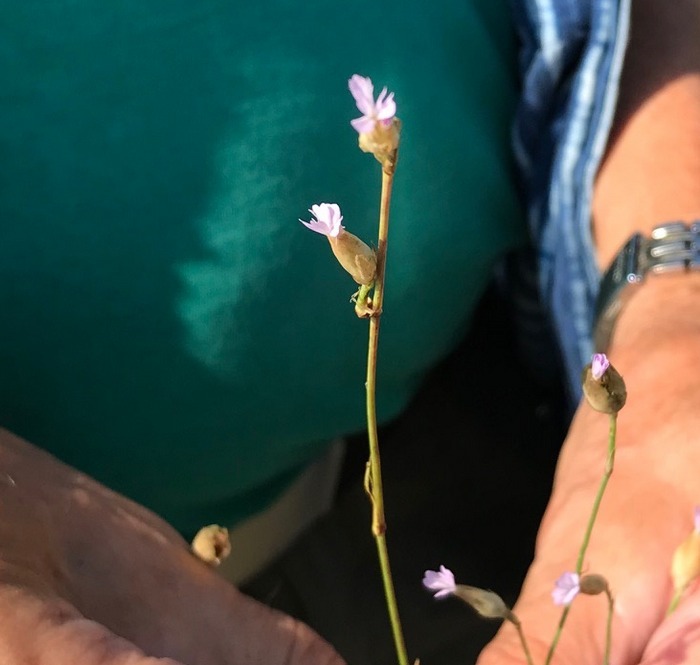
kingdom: Plantae
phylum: Tracheophyta
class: Magnoliopsida
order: Caryophyllales
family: Caryophyllaceae
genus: Petrorhagia
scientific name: Petrorhagia prolifera
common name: Knopnellike
